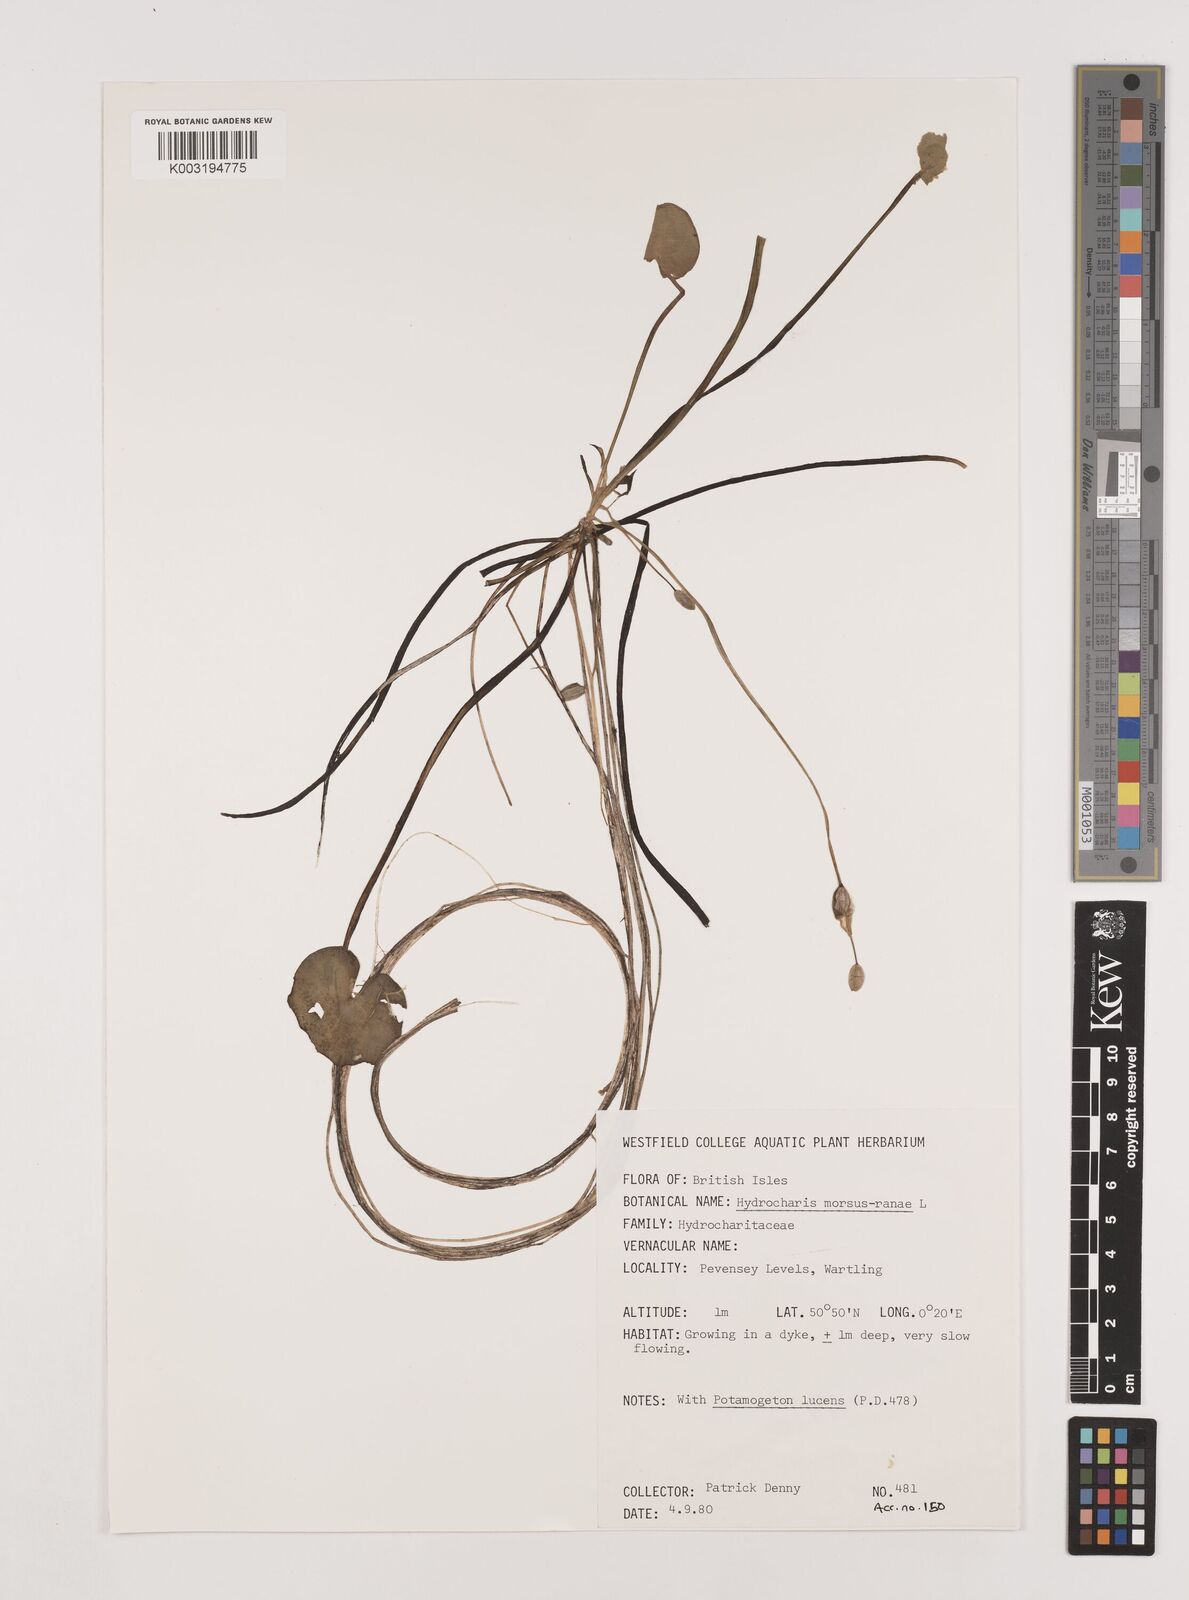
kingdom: Plantae
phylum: Tracheophyta
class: Liliopsida
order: Alismatales
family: Hydrocharitaceae
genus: Hydrocharis
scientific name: Hydrocharis morsus-ranae
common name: Frogbit
